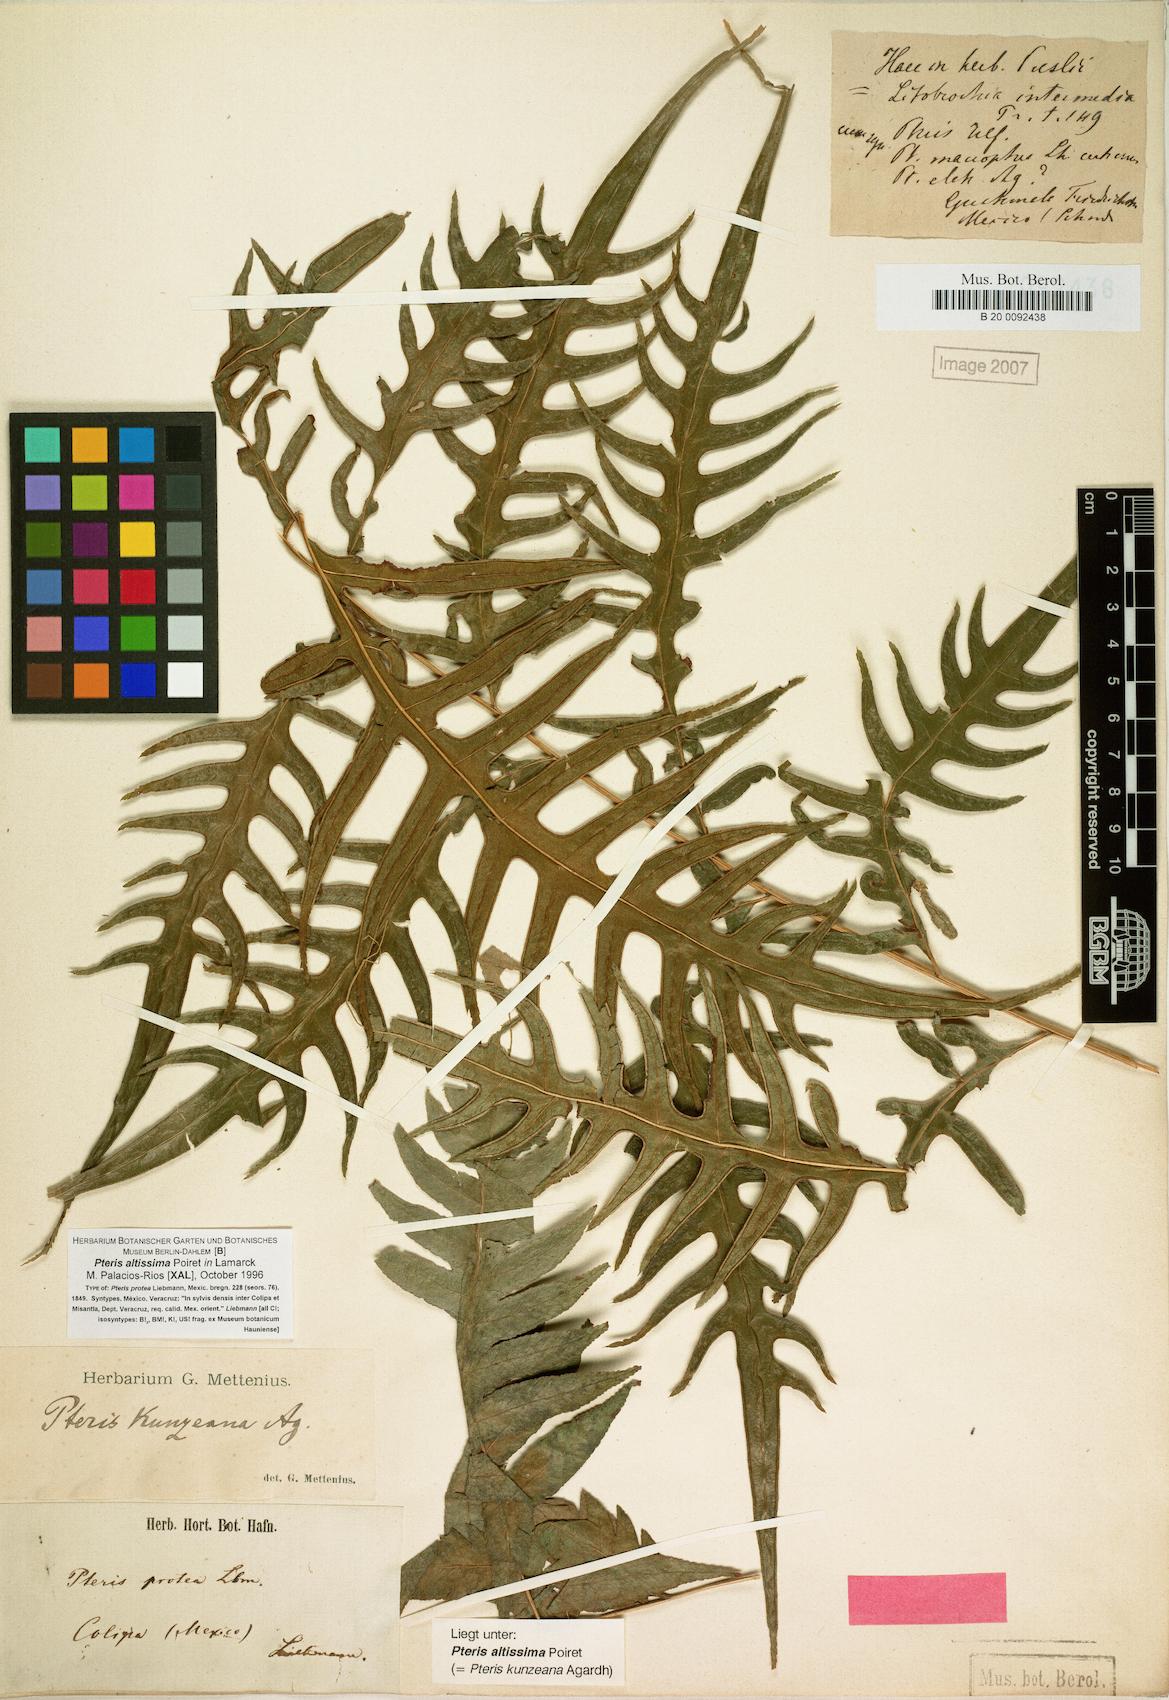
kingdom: Plantae
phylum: Tracheophyta
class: Polypodiopsida
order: Polypodiales
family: Pteridaceae
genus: Pteris
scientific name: Pteris altissima
